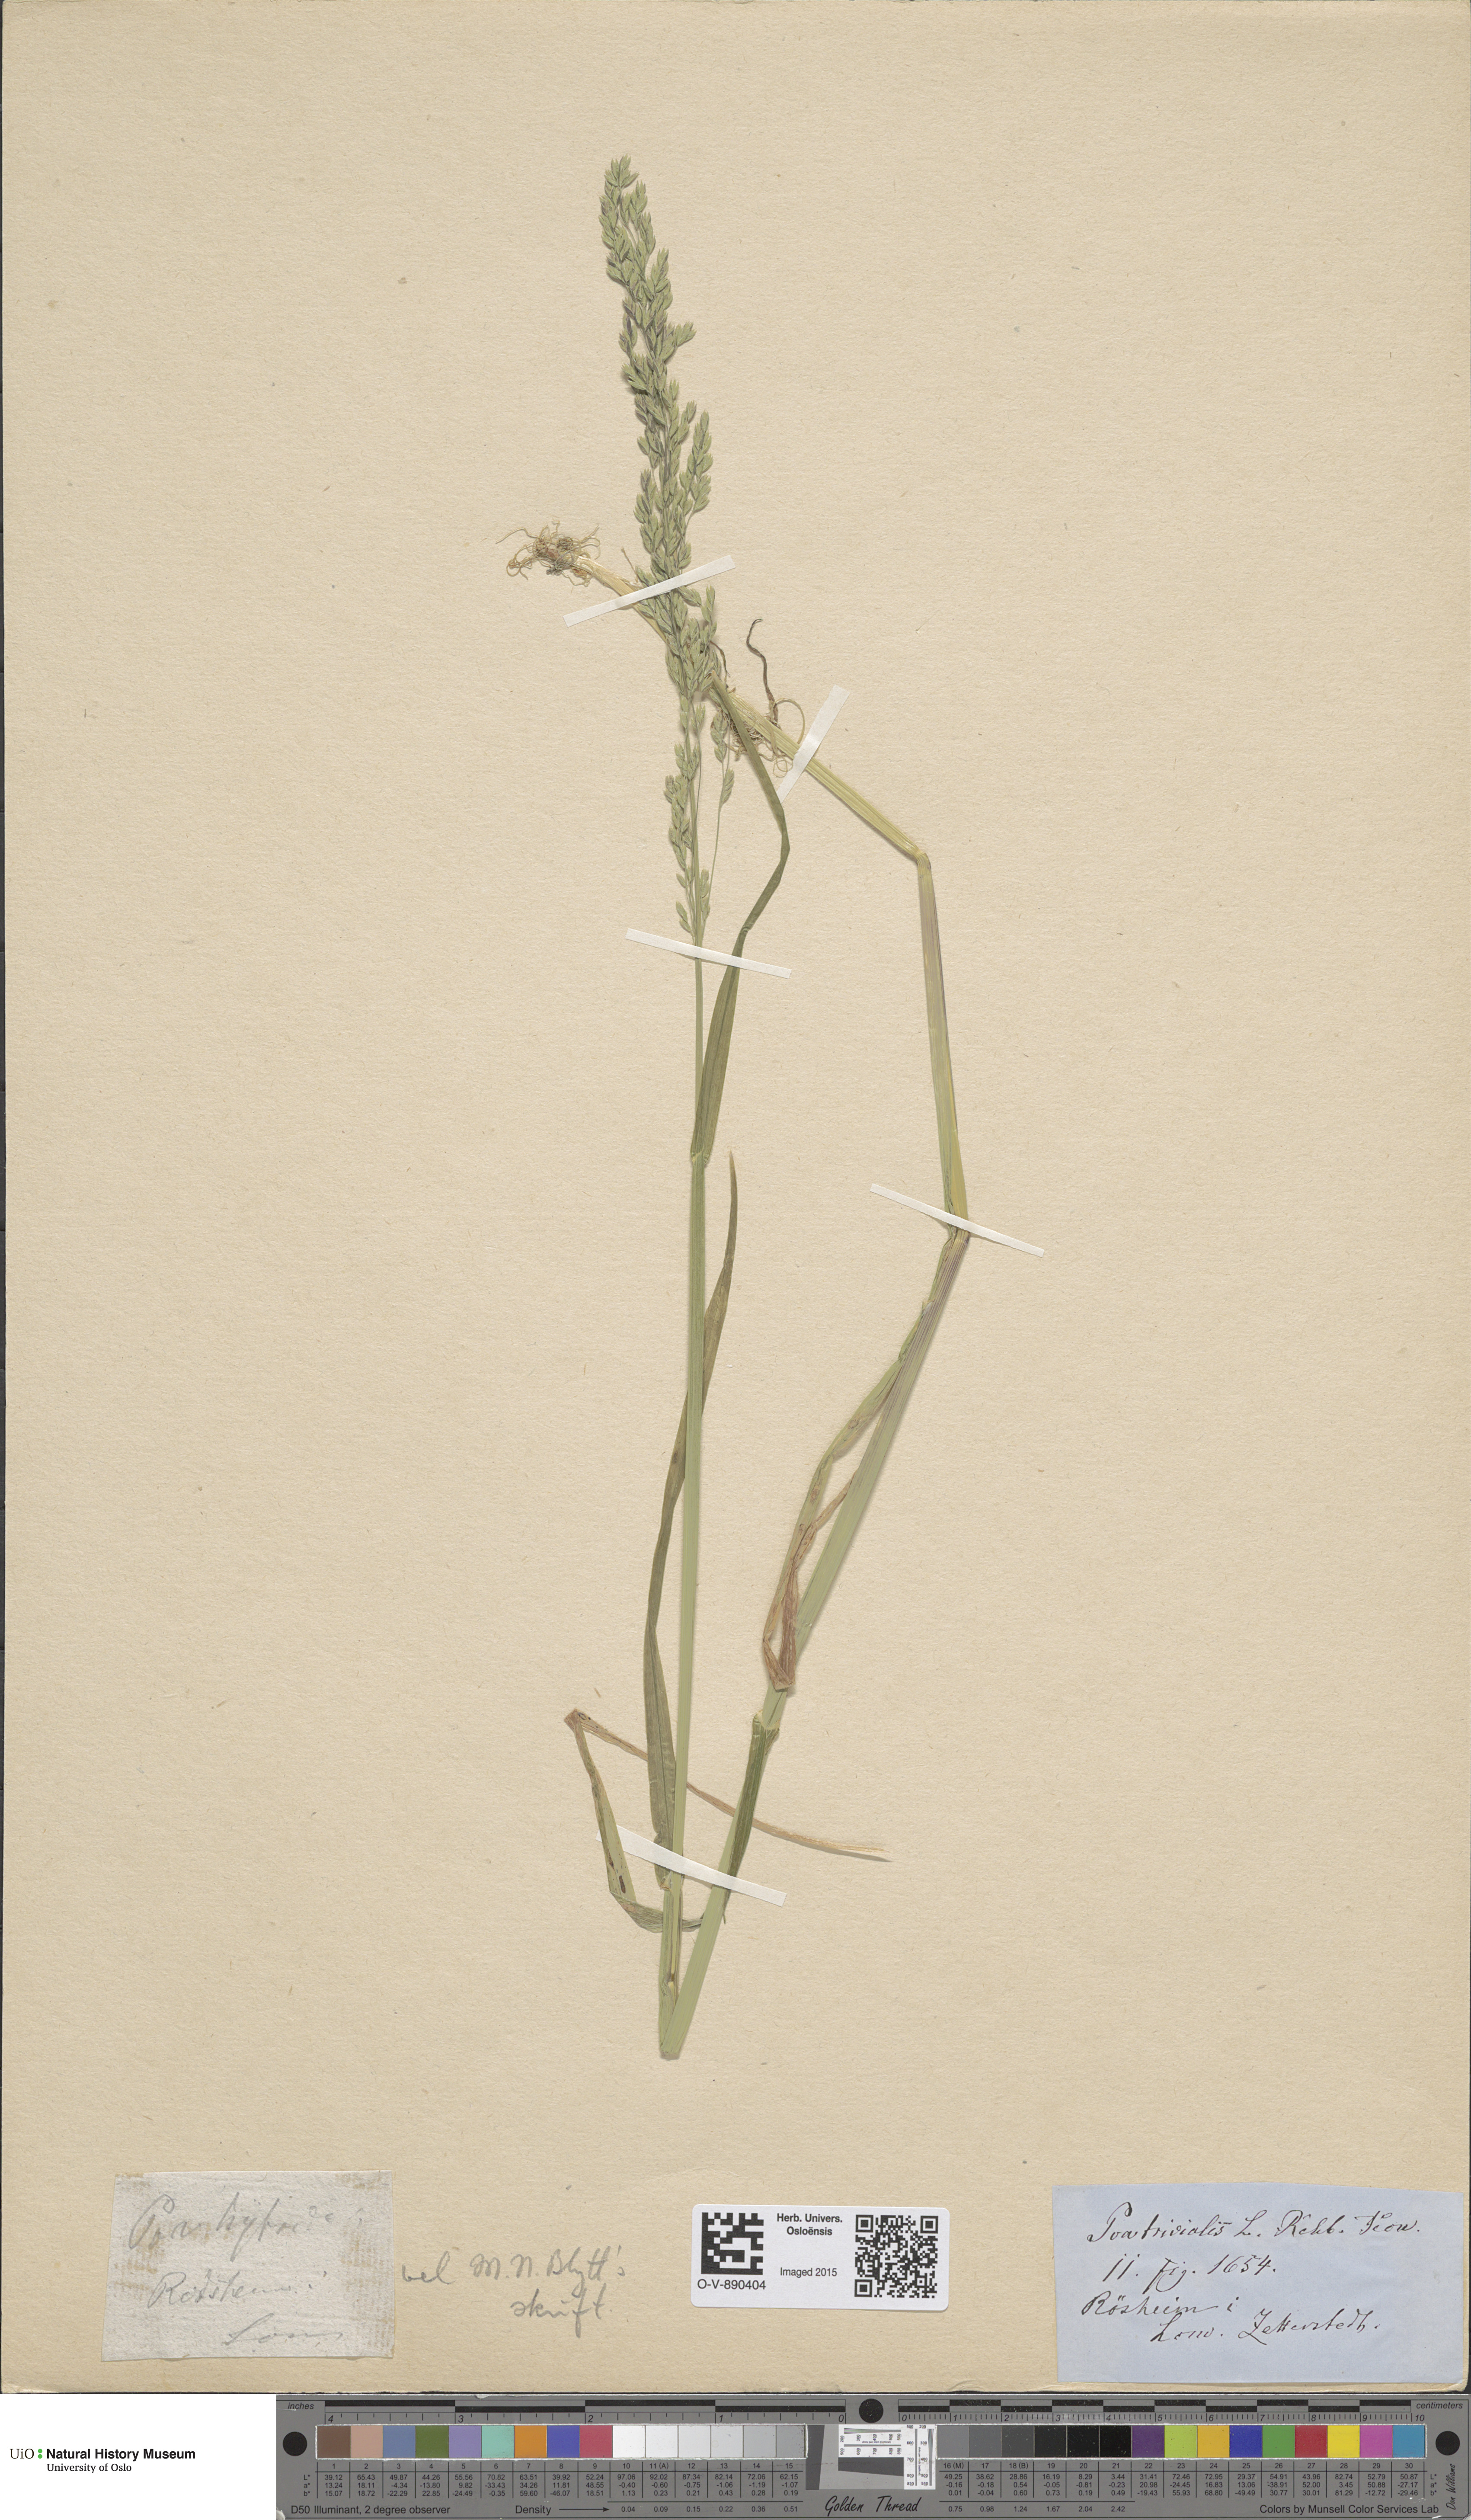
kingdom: Plantae
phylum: Tracheophyta
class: Liliopsida
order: Poales
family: Poaceae
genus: Poa
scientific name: Poa trivialis
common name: Rough bluegrass
